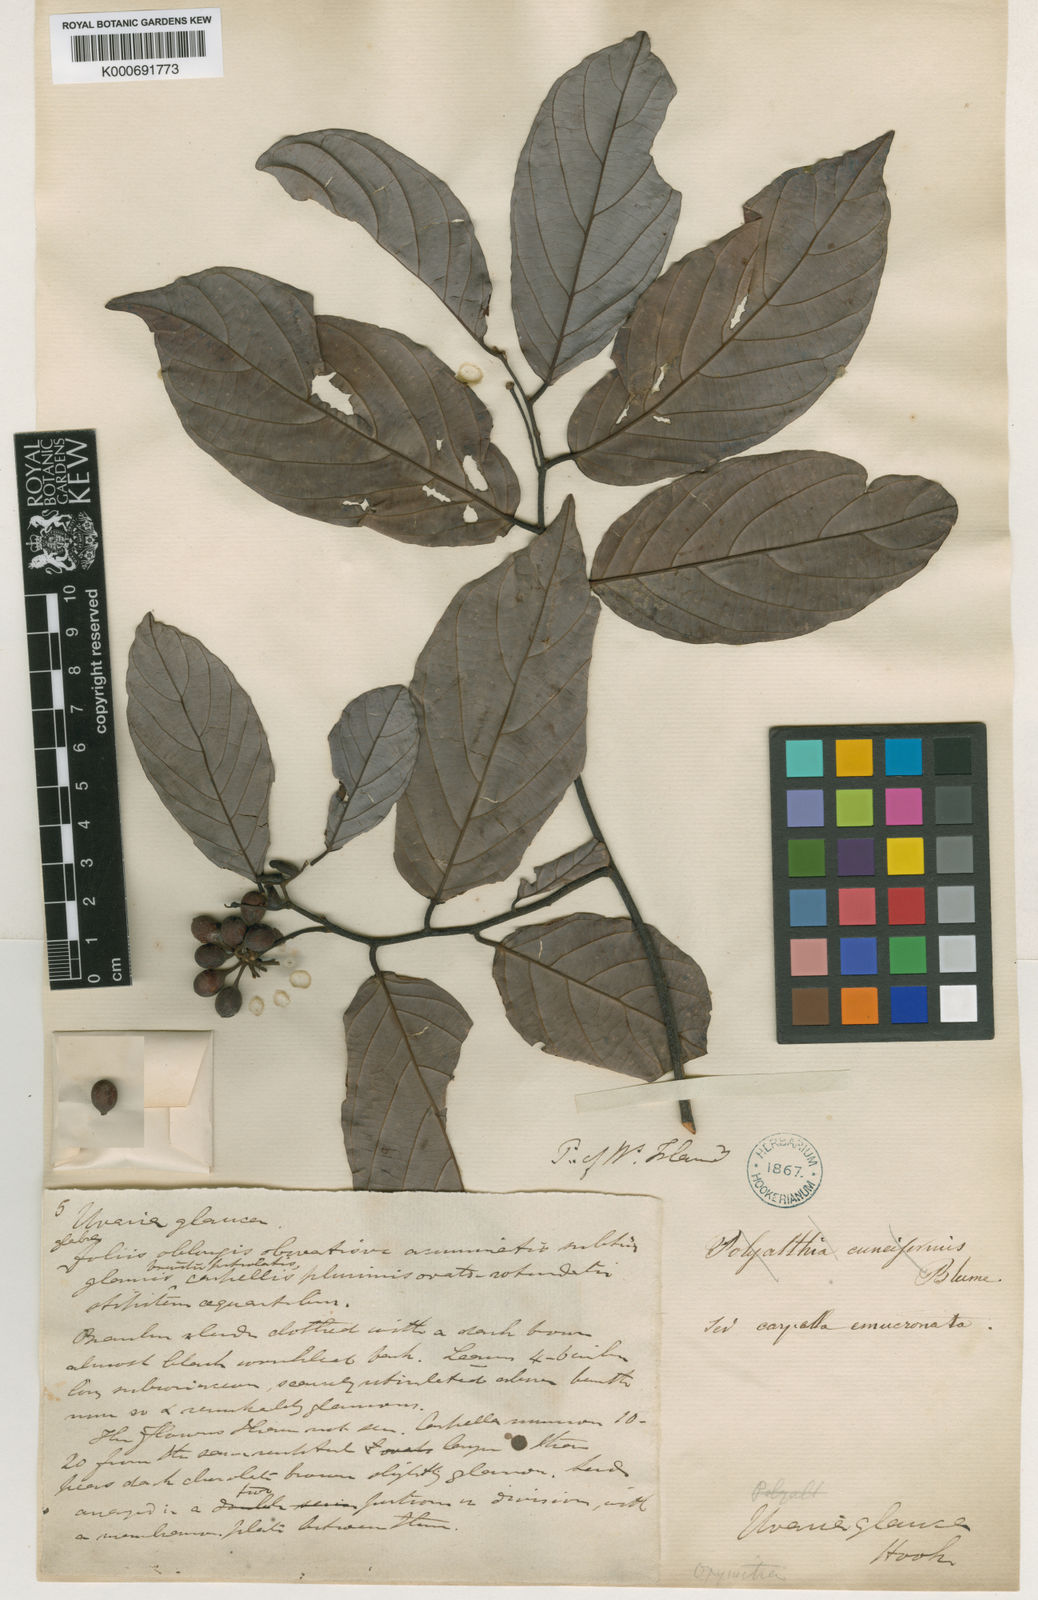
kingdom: Plantae
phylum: Tracheophyta
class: Magnoliopsida
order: Magnoliales
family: Annonaceae
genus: Friesodielsia
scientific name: Friesodielsia glauca
